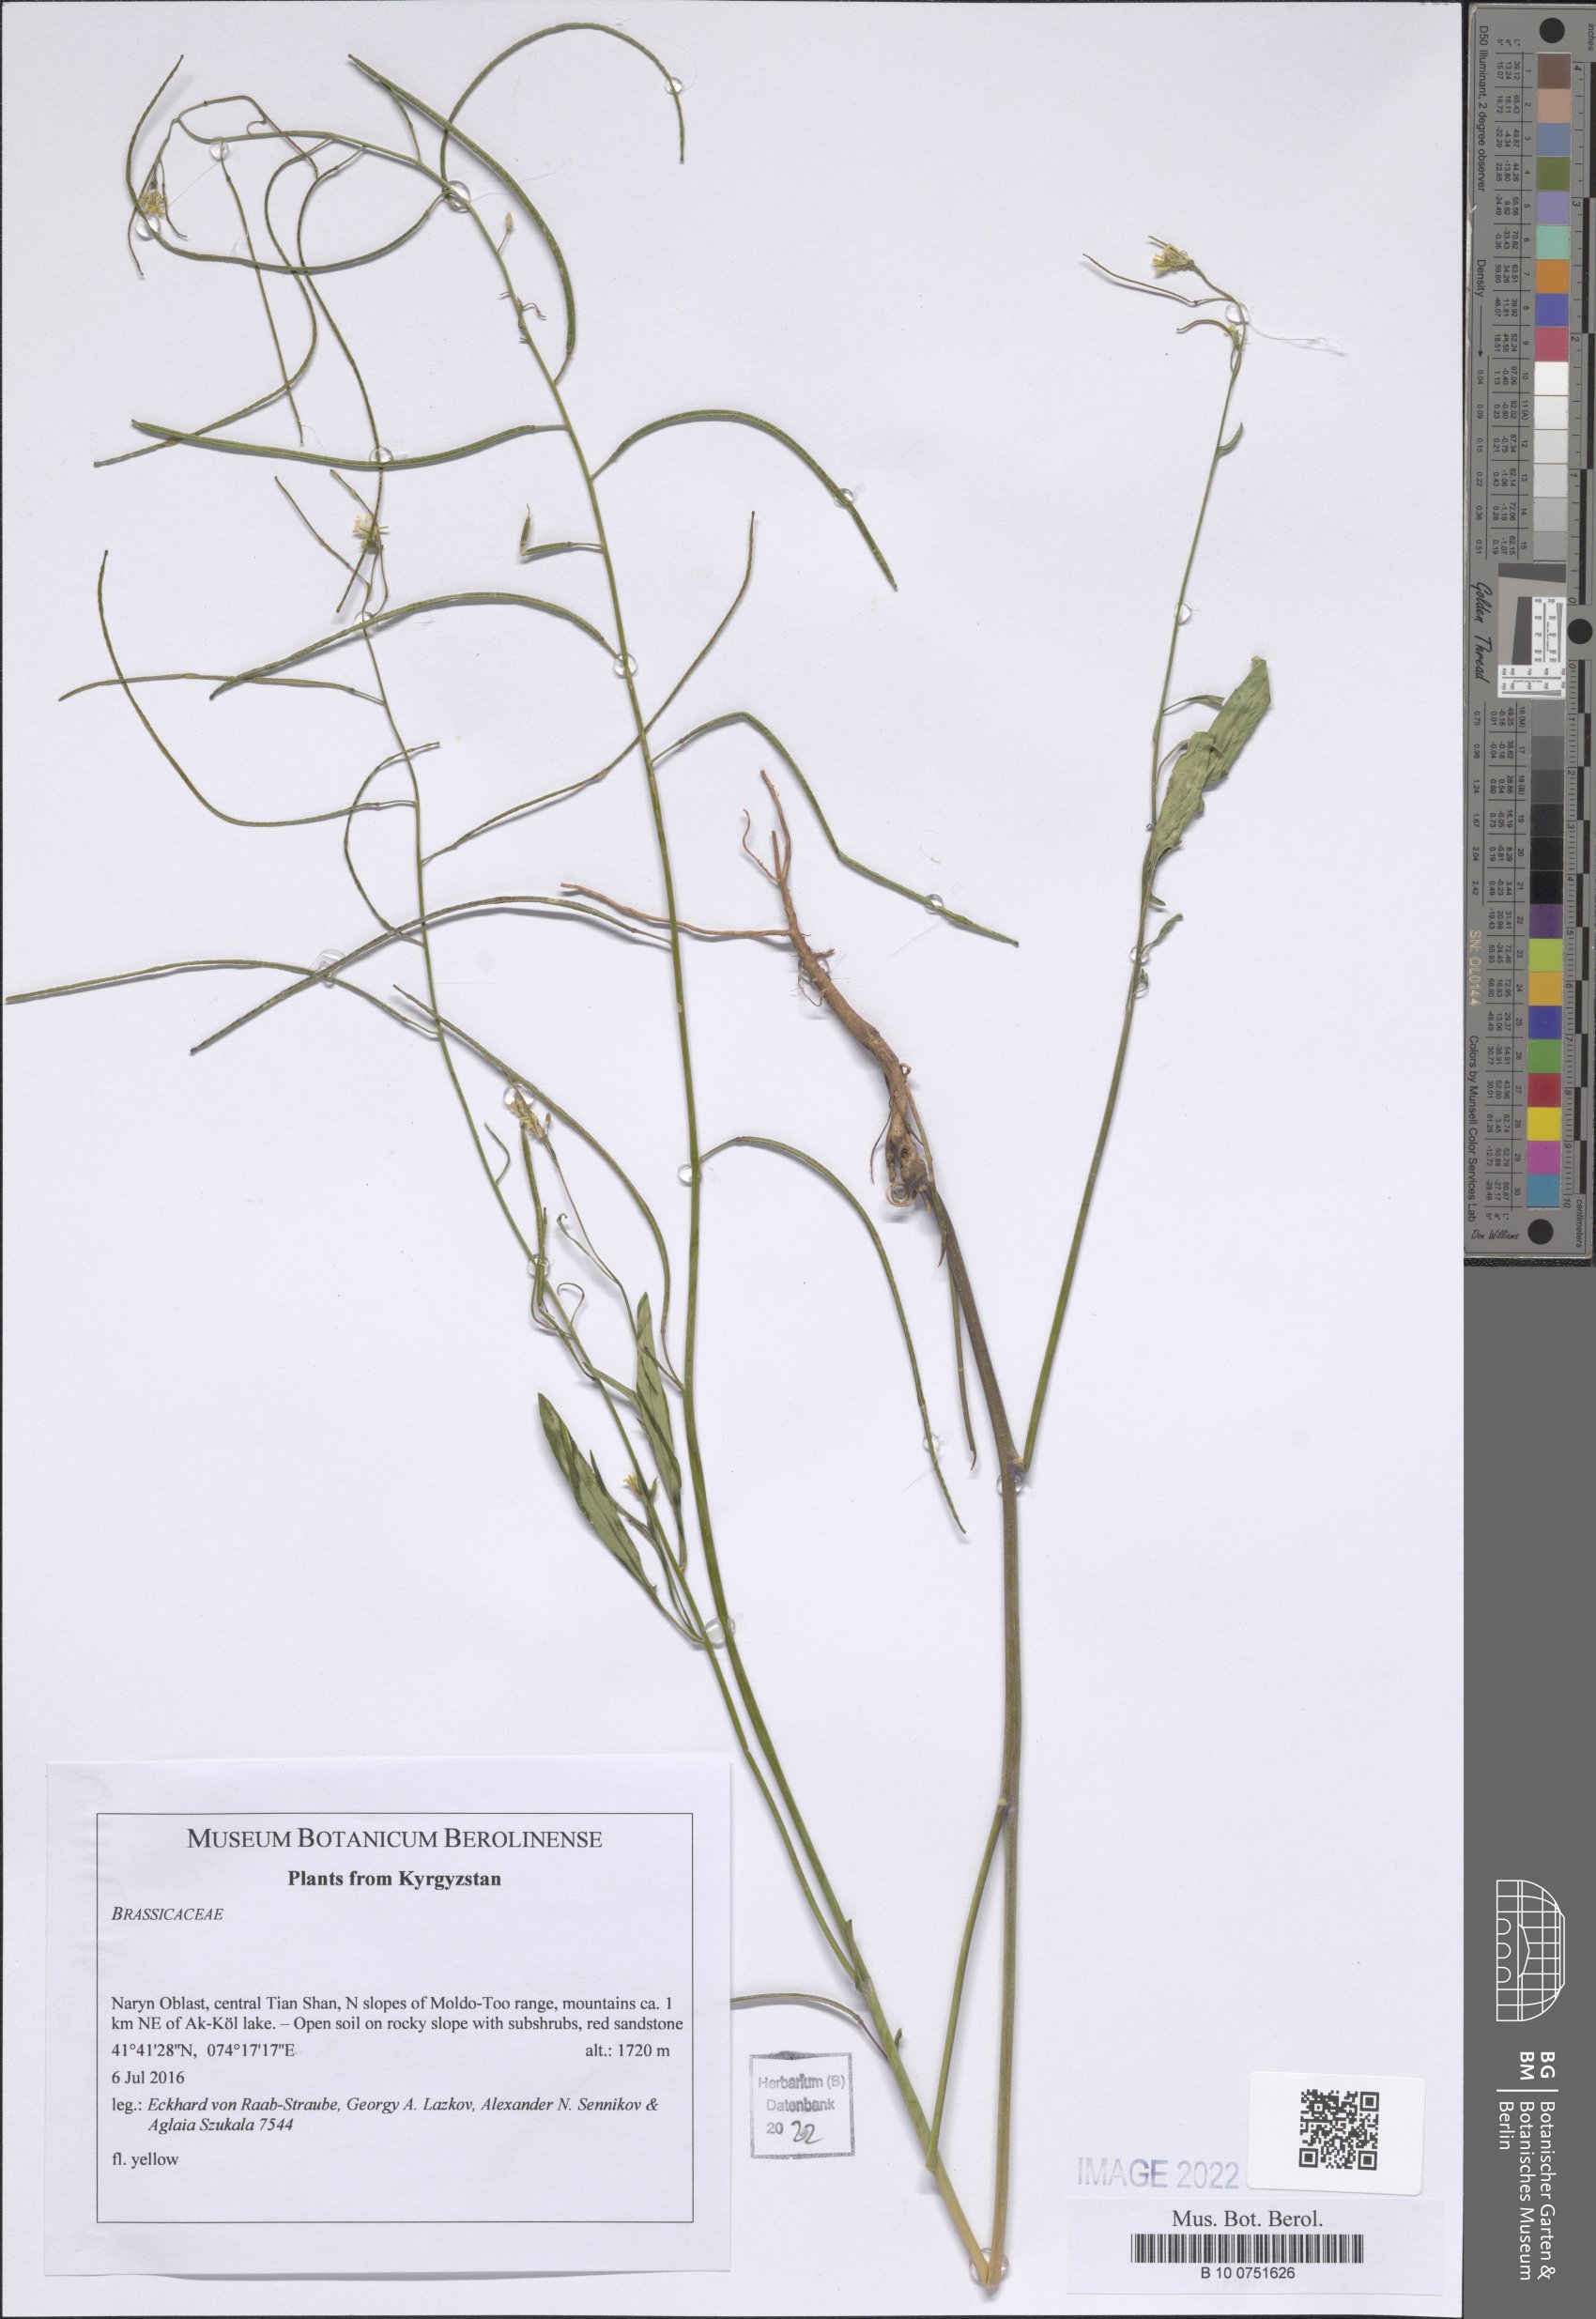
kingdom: Plantae
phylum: Tracheophyta
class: Magnoliopsida
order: Brassicales
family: Brassicaceae
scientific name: Brassicaceae
